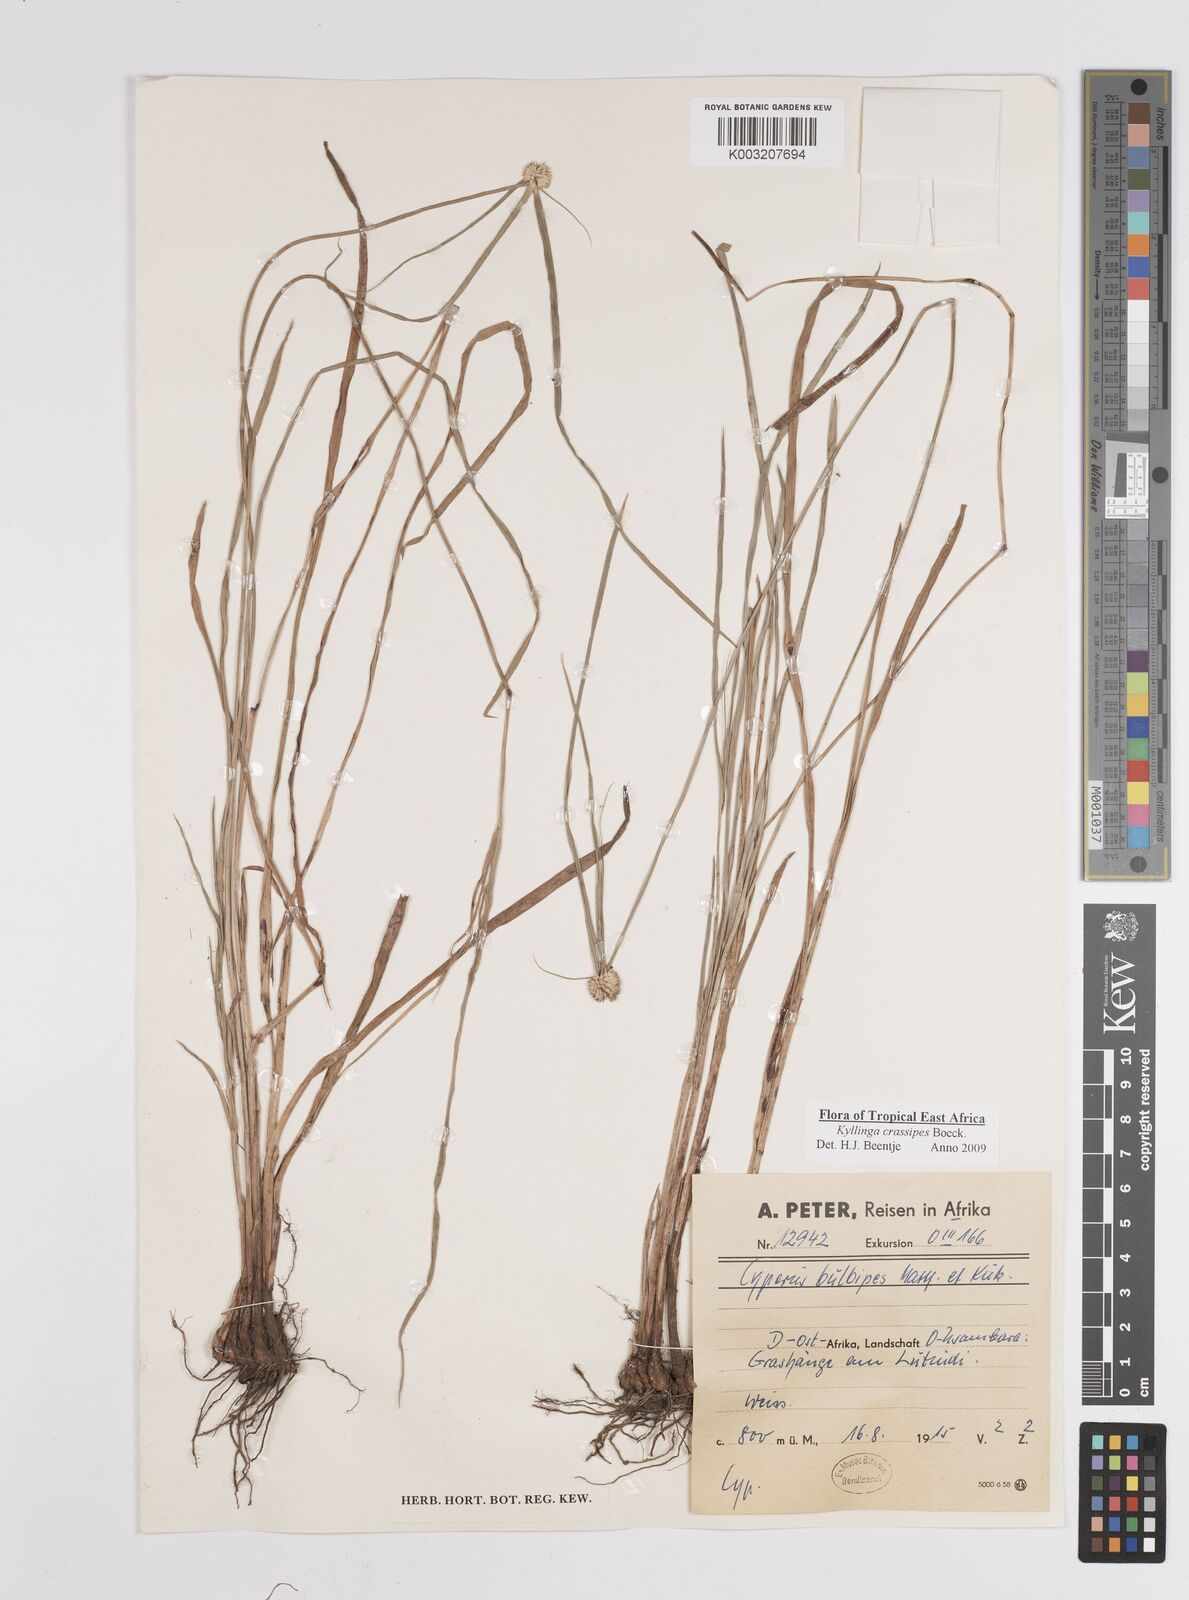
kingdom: Plantae
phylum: Tracheophyta
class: Liliopsida
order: Poales
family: Cyperaceae
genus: Cyperus
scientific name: Cyperus crassipes
